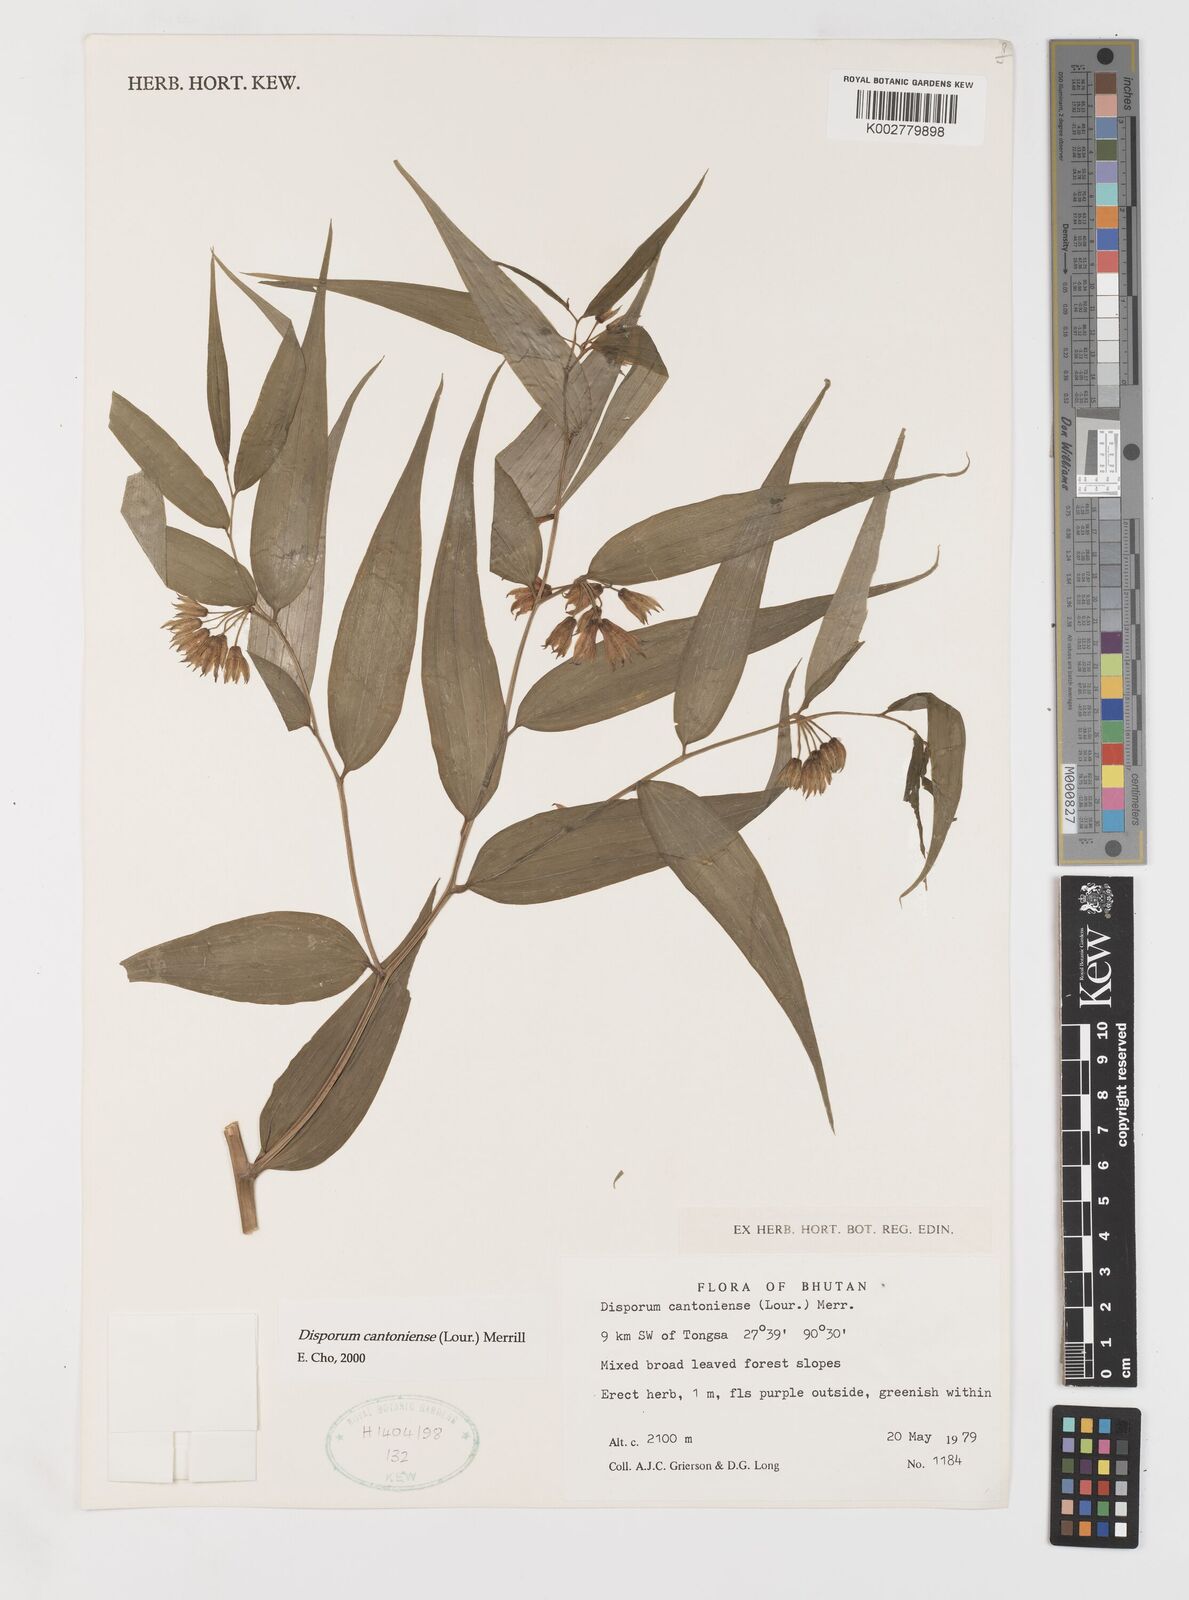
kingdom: Plantae
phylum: Tracheophyta
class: Liliopsida
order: Liliales
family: Colchicaceae
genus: Disporum
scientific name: Disporum cantoniense
